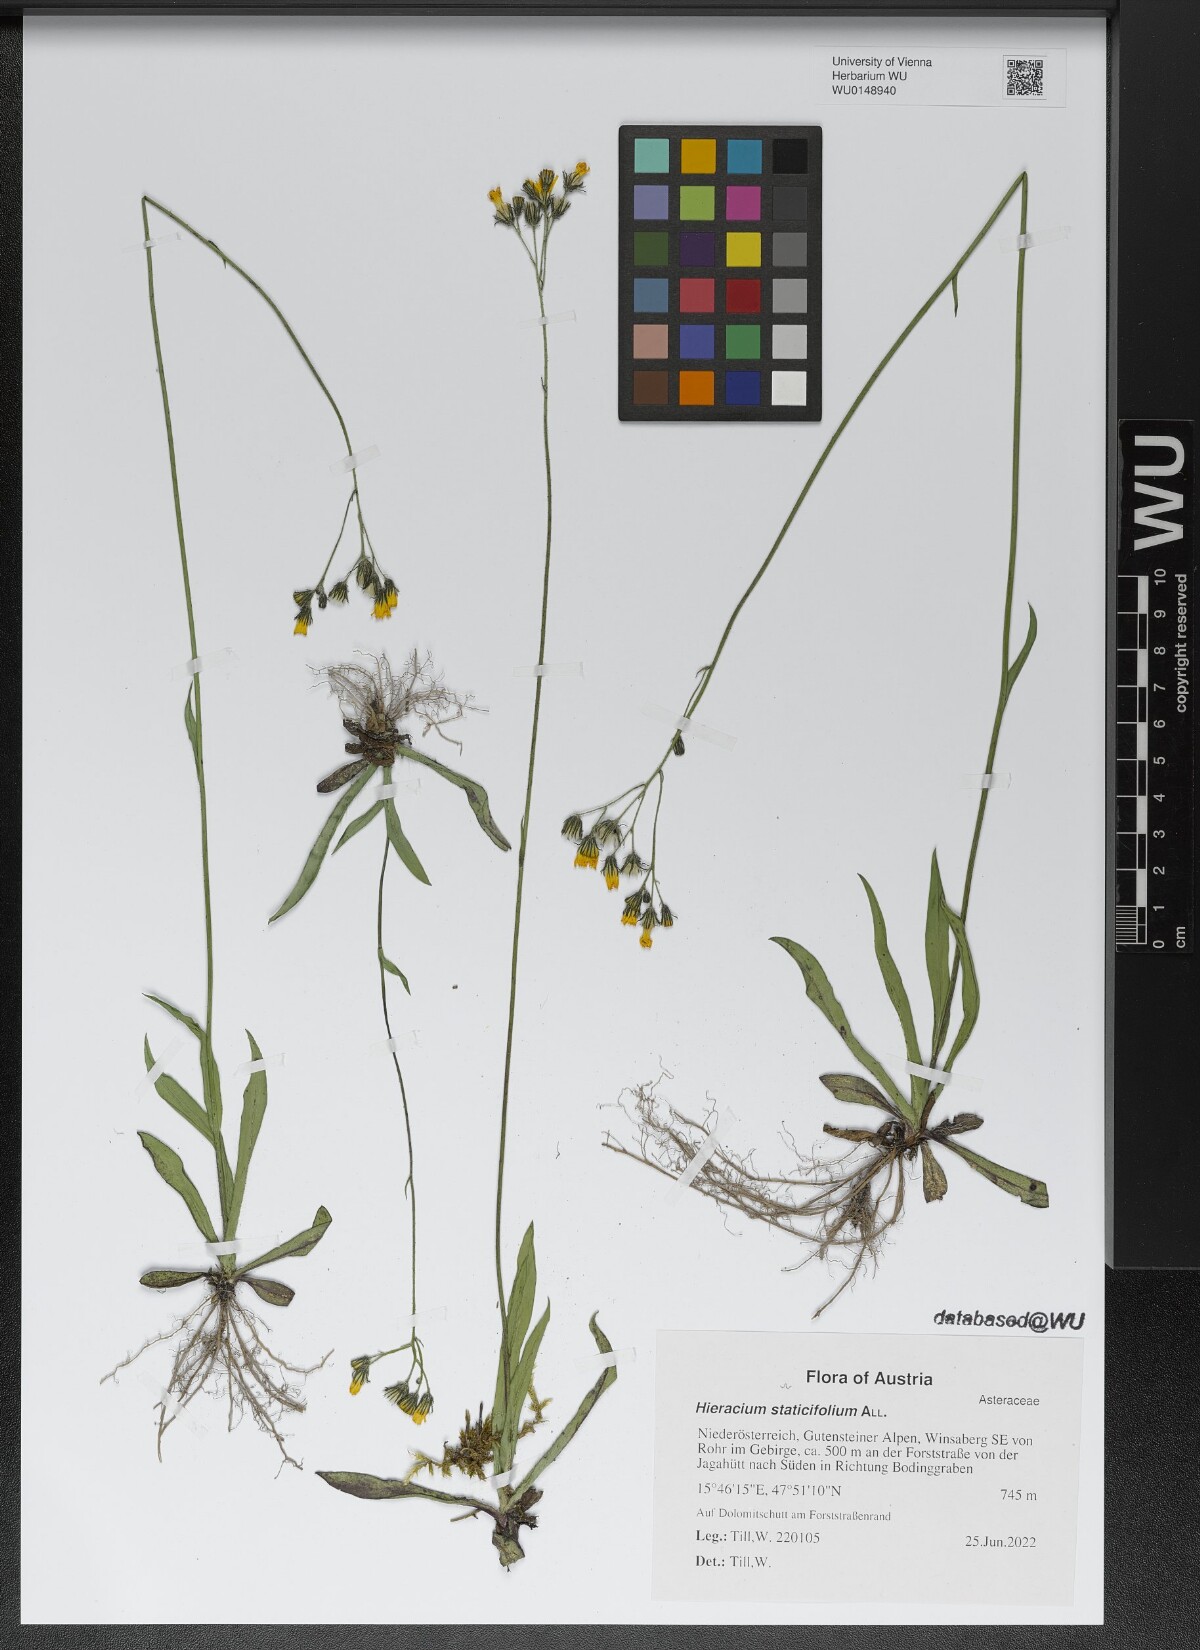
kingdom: Plantae
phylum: Tracheophyta
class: Magnoliopsida
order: Asterales
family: Asteraceae
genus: Tolpis
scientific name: Tolpis staticifolia
